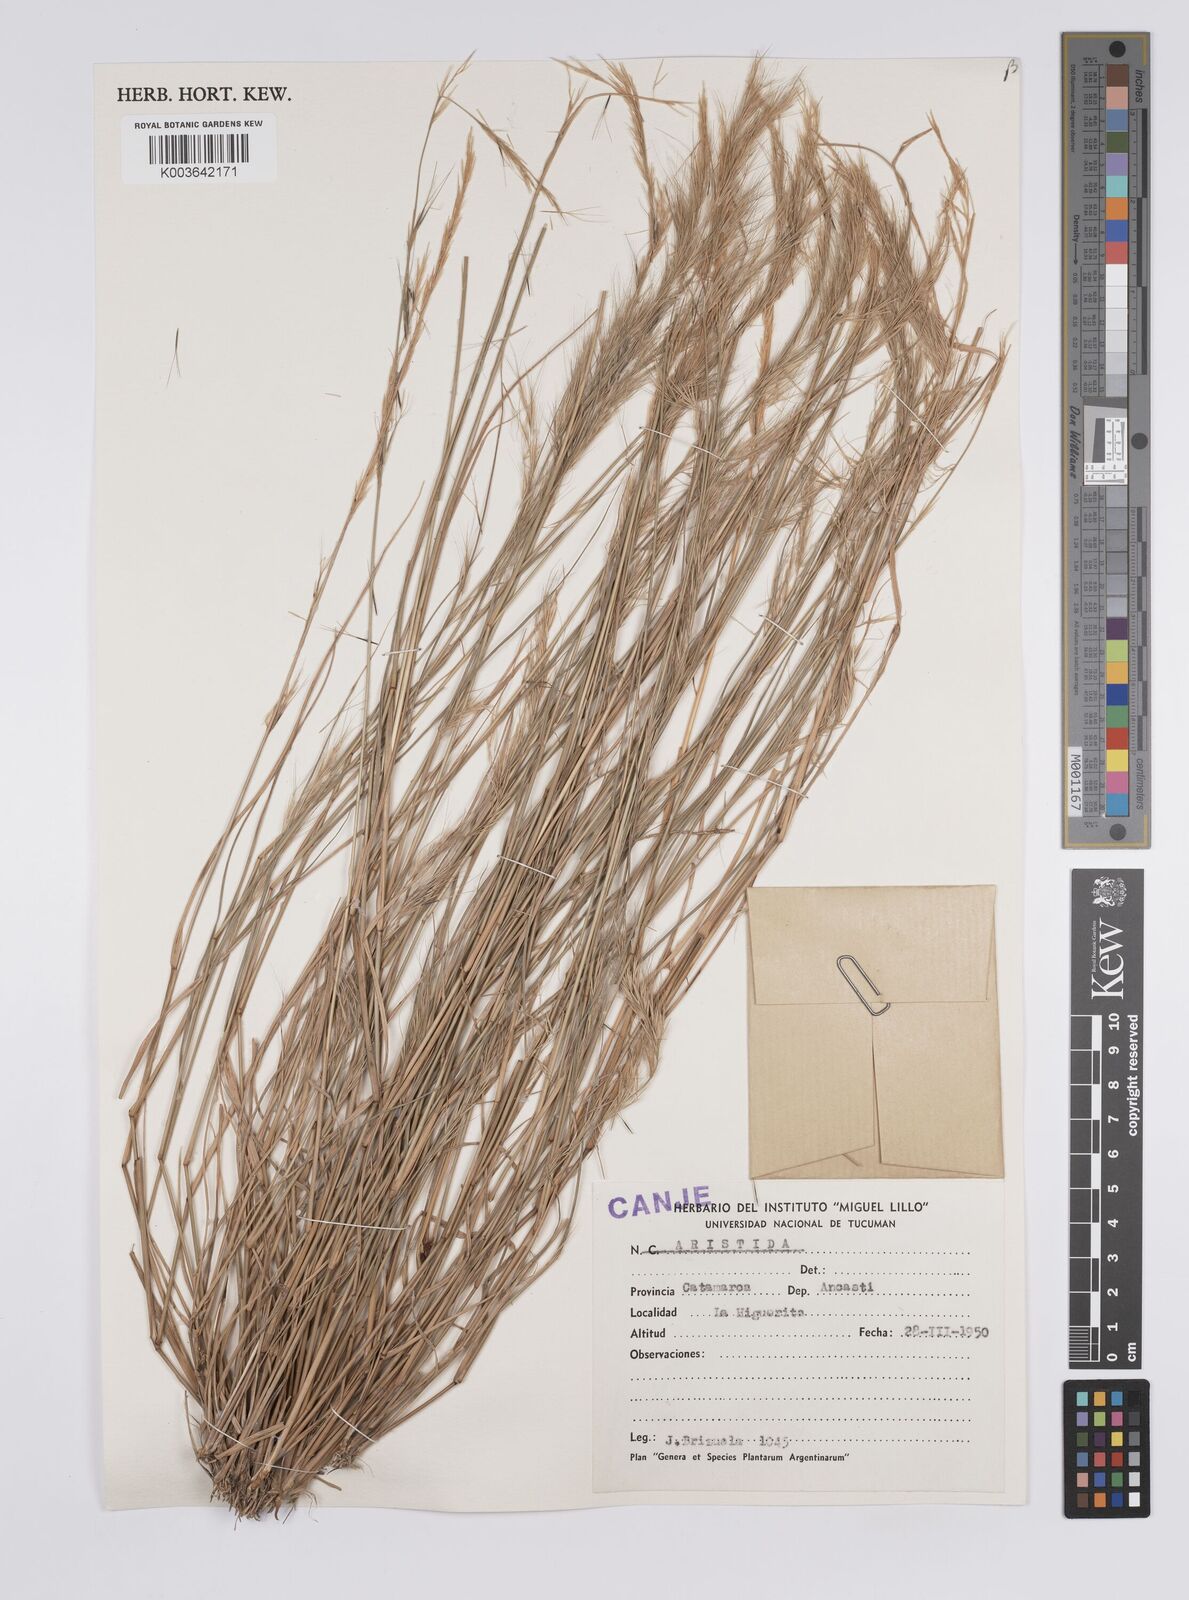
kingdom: Plantae
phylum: Tracheophyta
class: Liliopsida
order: Poales
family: Poaceae
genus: Aristida
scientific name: Aristida
